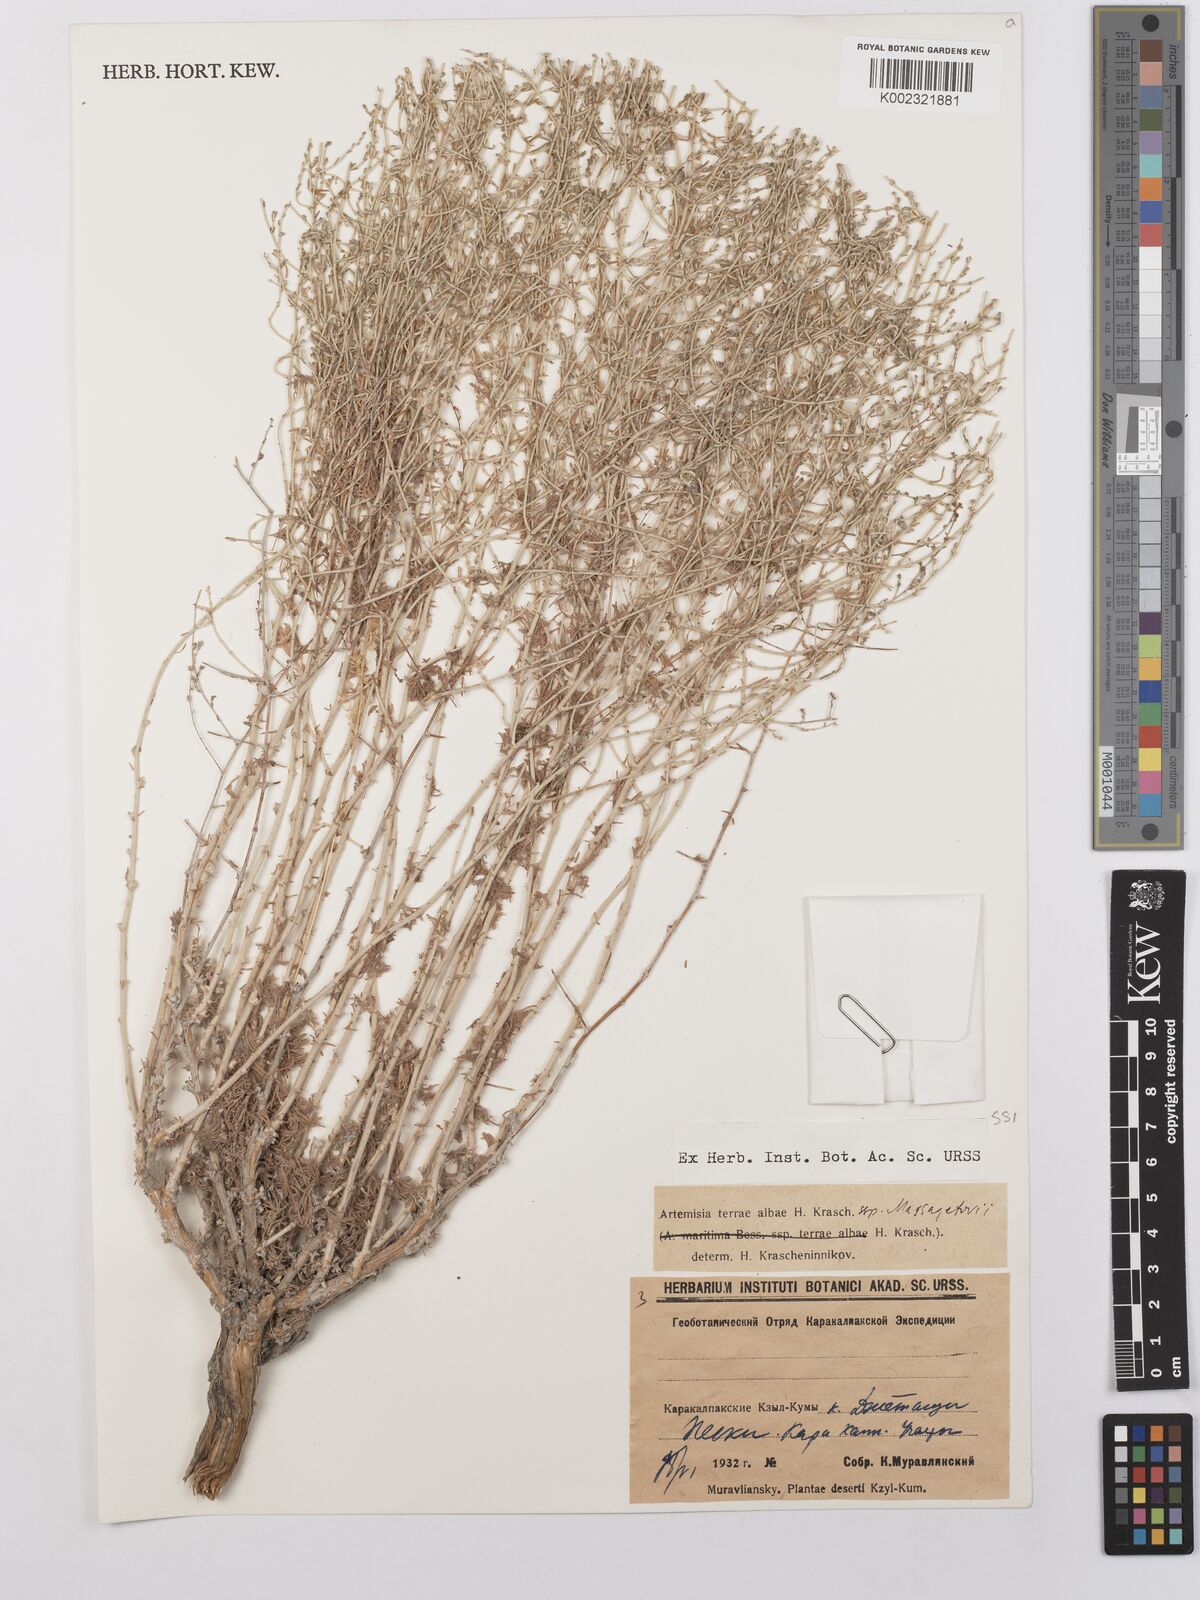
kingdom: Plantae
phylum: Tracheophyta
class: Magnoliopsida
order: Asterales
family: Asteraceae
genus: Artemisia
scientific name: Artemisia terrae-albae
